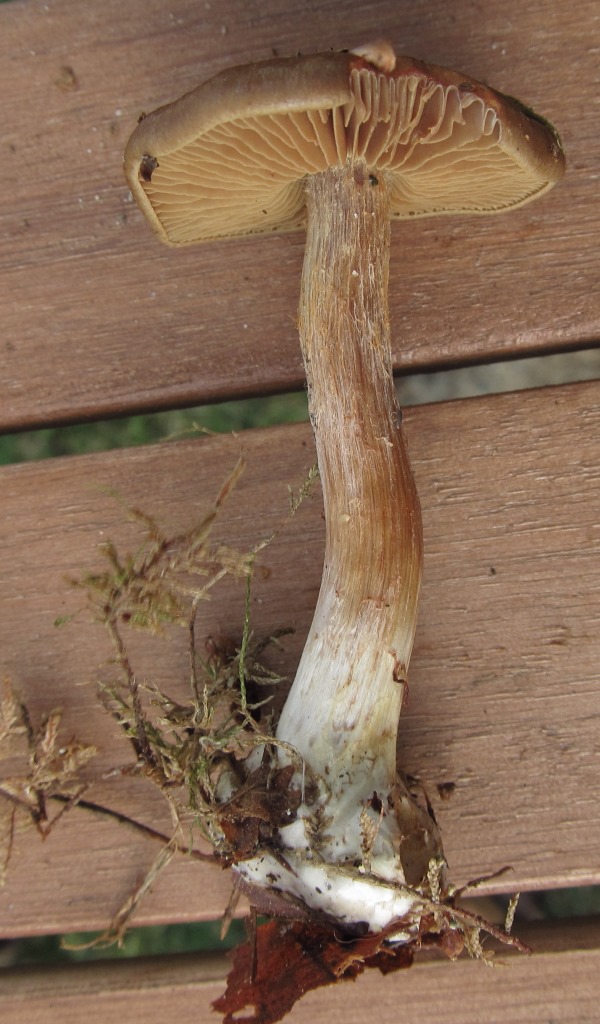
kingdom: Fungi
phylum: Basidiomycota
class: Agaricomycetes
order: Agaricales
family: Cortinariaceae
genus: Thaxterogaster
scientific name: Thaxterogaster scaurus
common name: sump-slørhat
